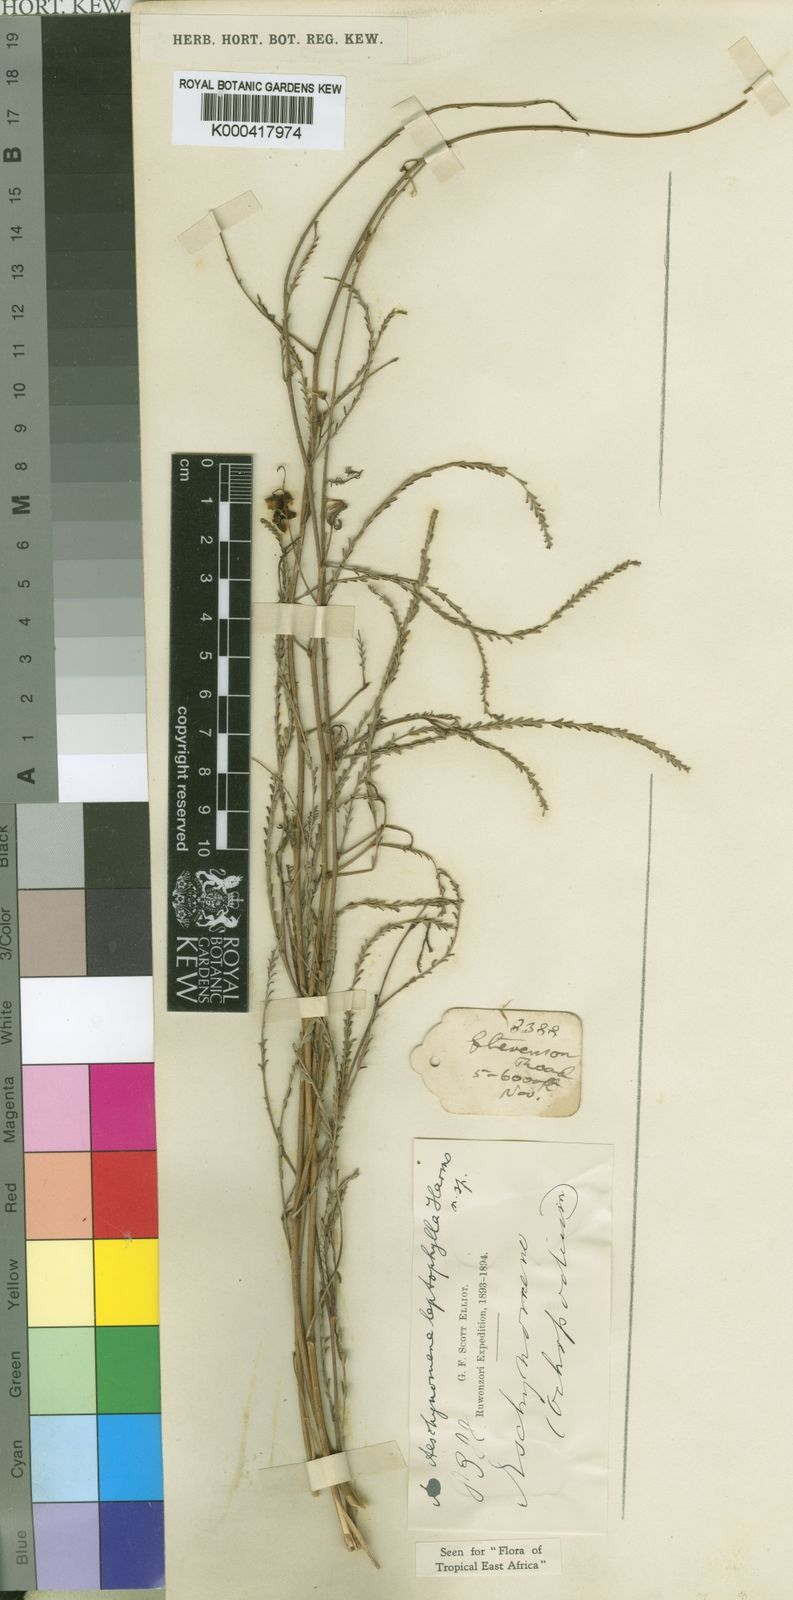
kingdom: Plantae
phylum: Tracheophyta
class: Magnoliopsida
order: Fabales
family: Fabaceae
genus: Aeschynomene
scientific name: Aeschynomene leptophylla
